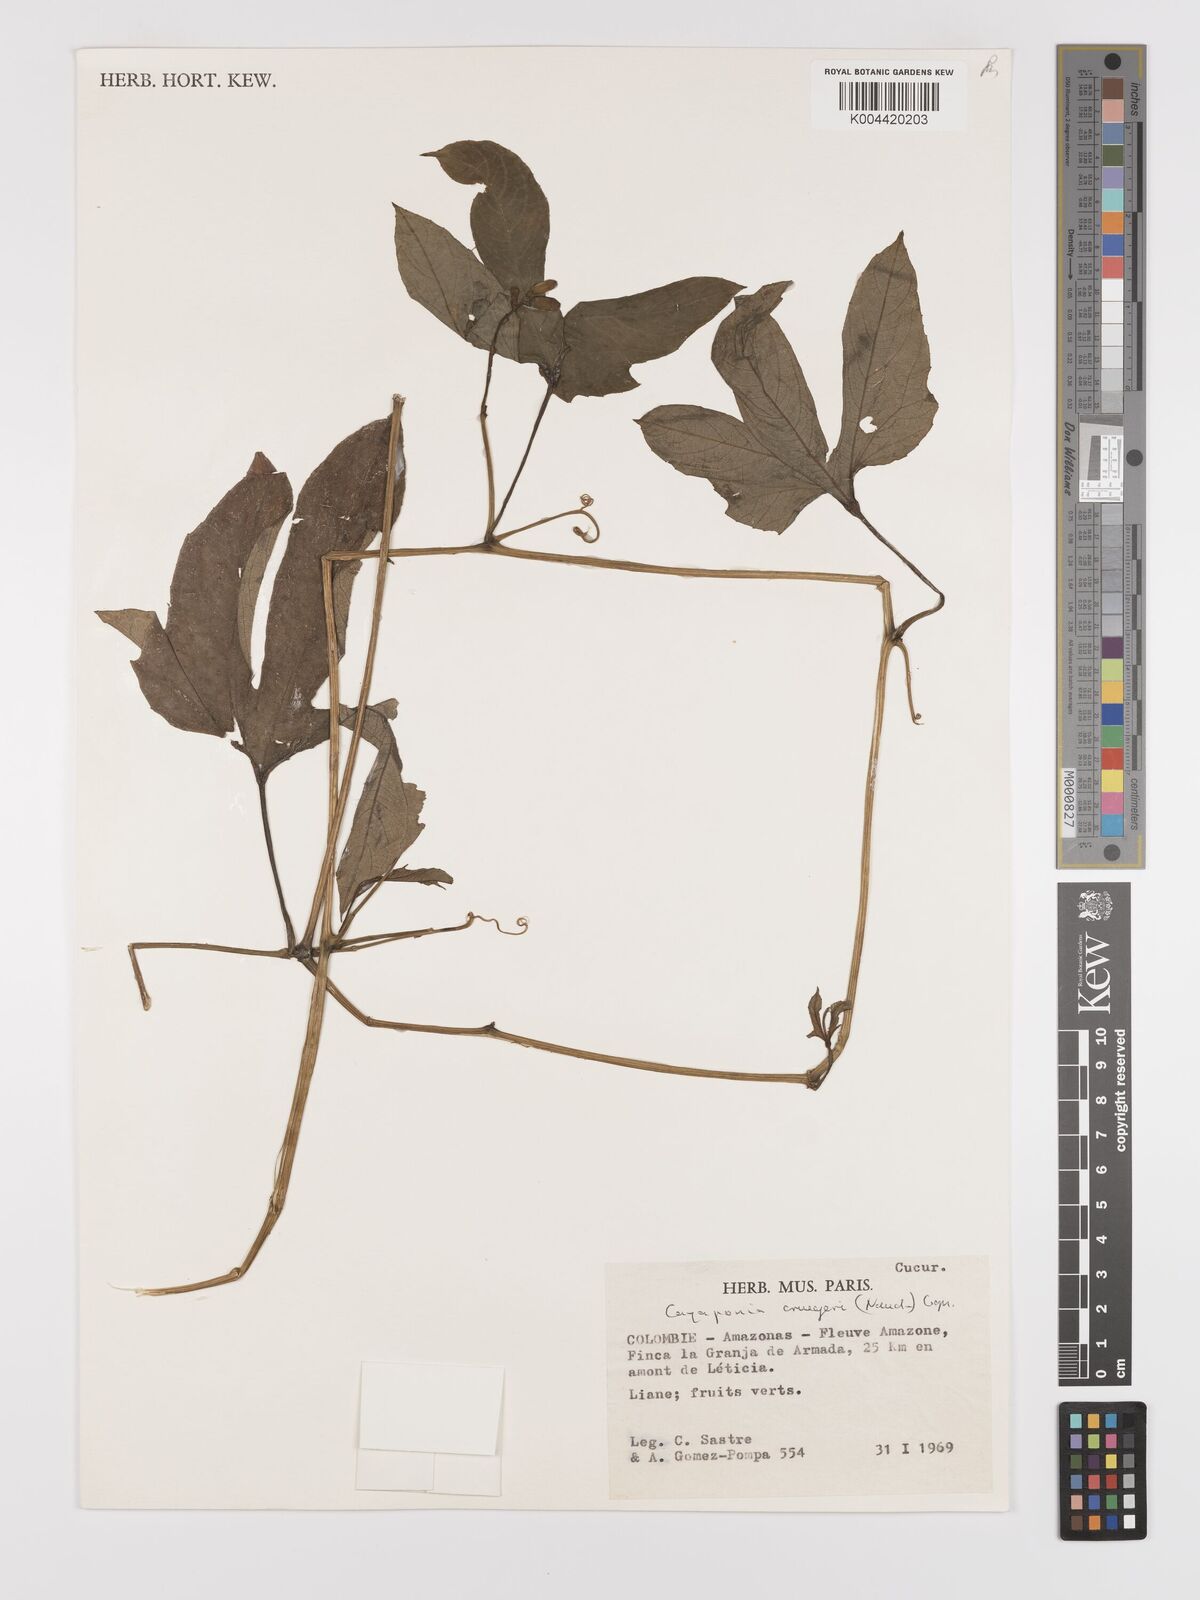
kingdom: Plantae
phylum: Tracheophyta
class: Magnoliopsida
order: Cucurbitales
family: Cucurbitaceae
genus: Cayaponia
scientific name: Cayaponia cruegeri
